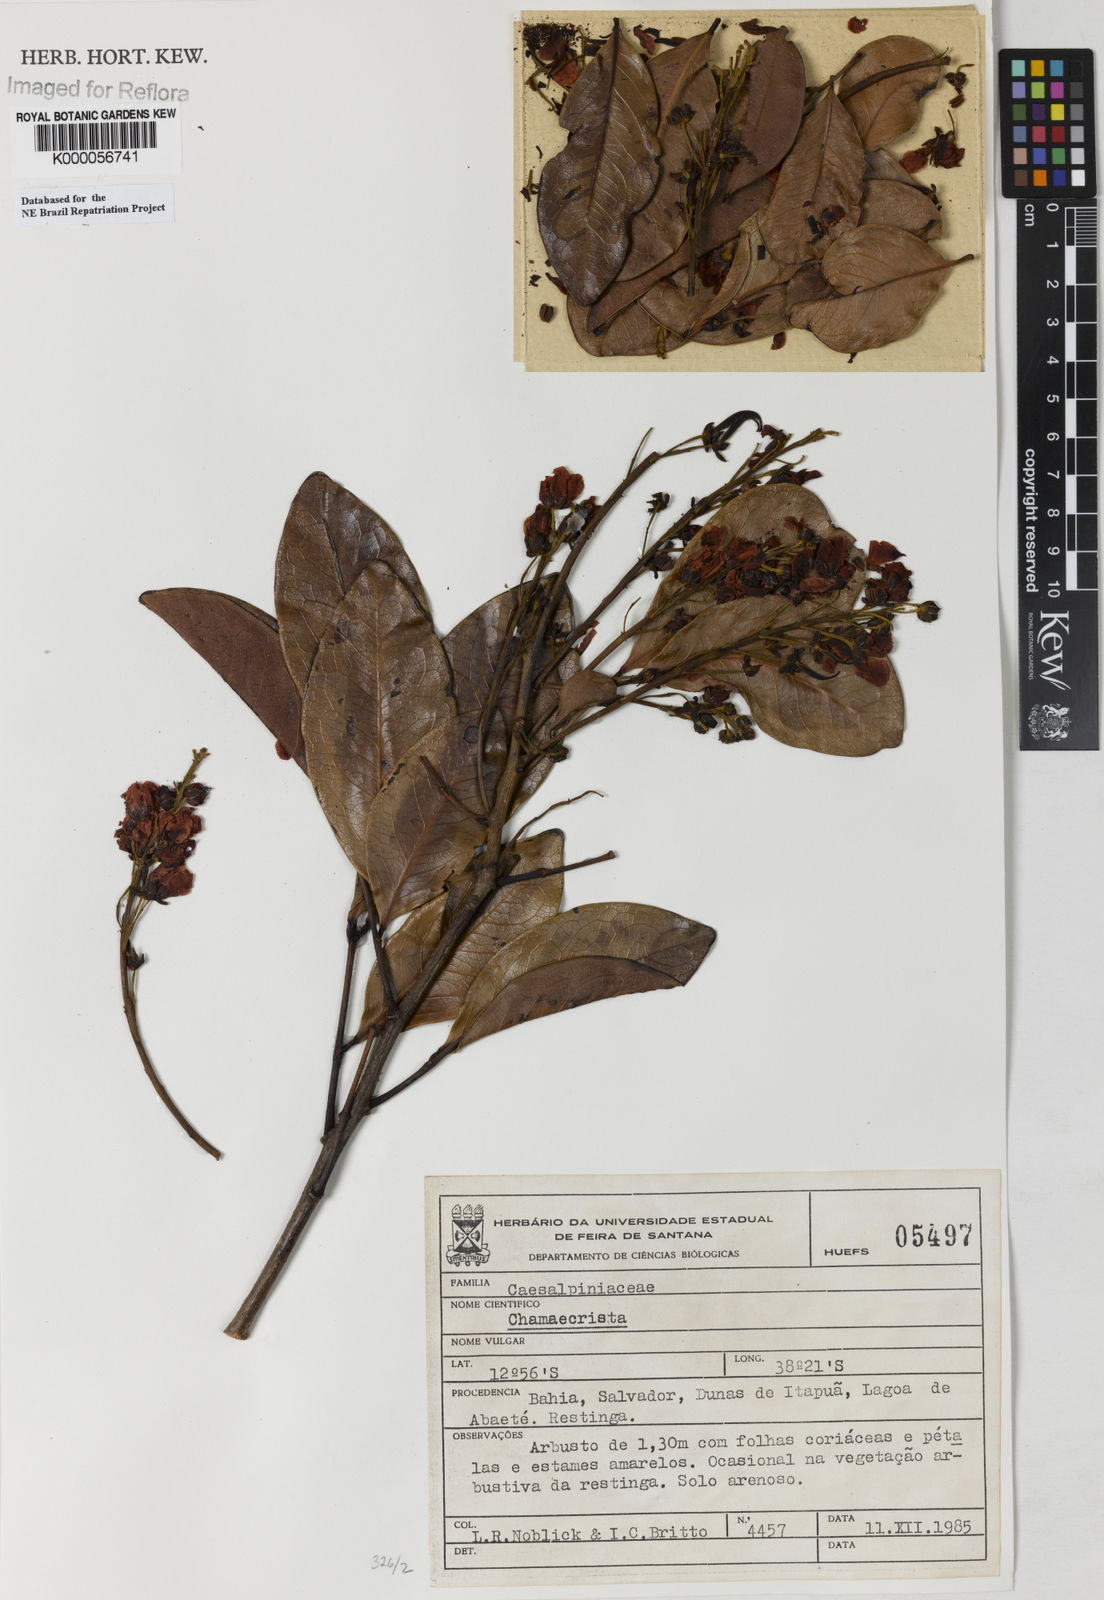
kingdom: Plantae
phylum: Tracheophyta
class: Magnoliopsida
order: Fabales
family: Fabaceae
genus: Chamaecrista
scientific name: Chamaecrista
